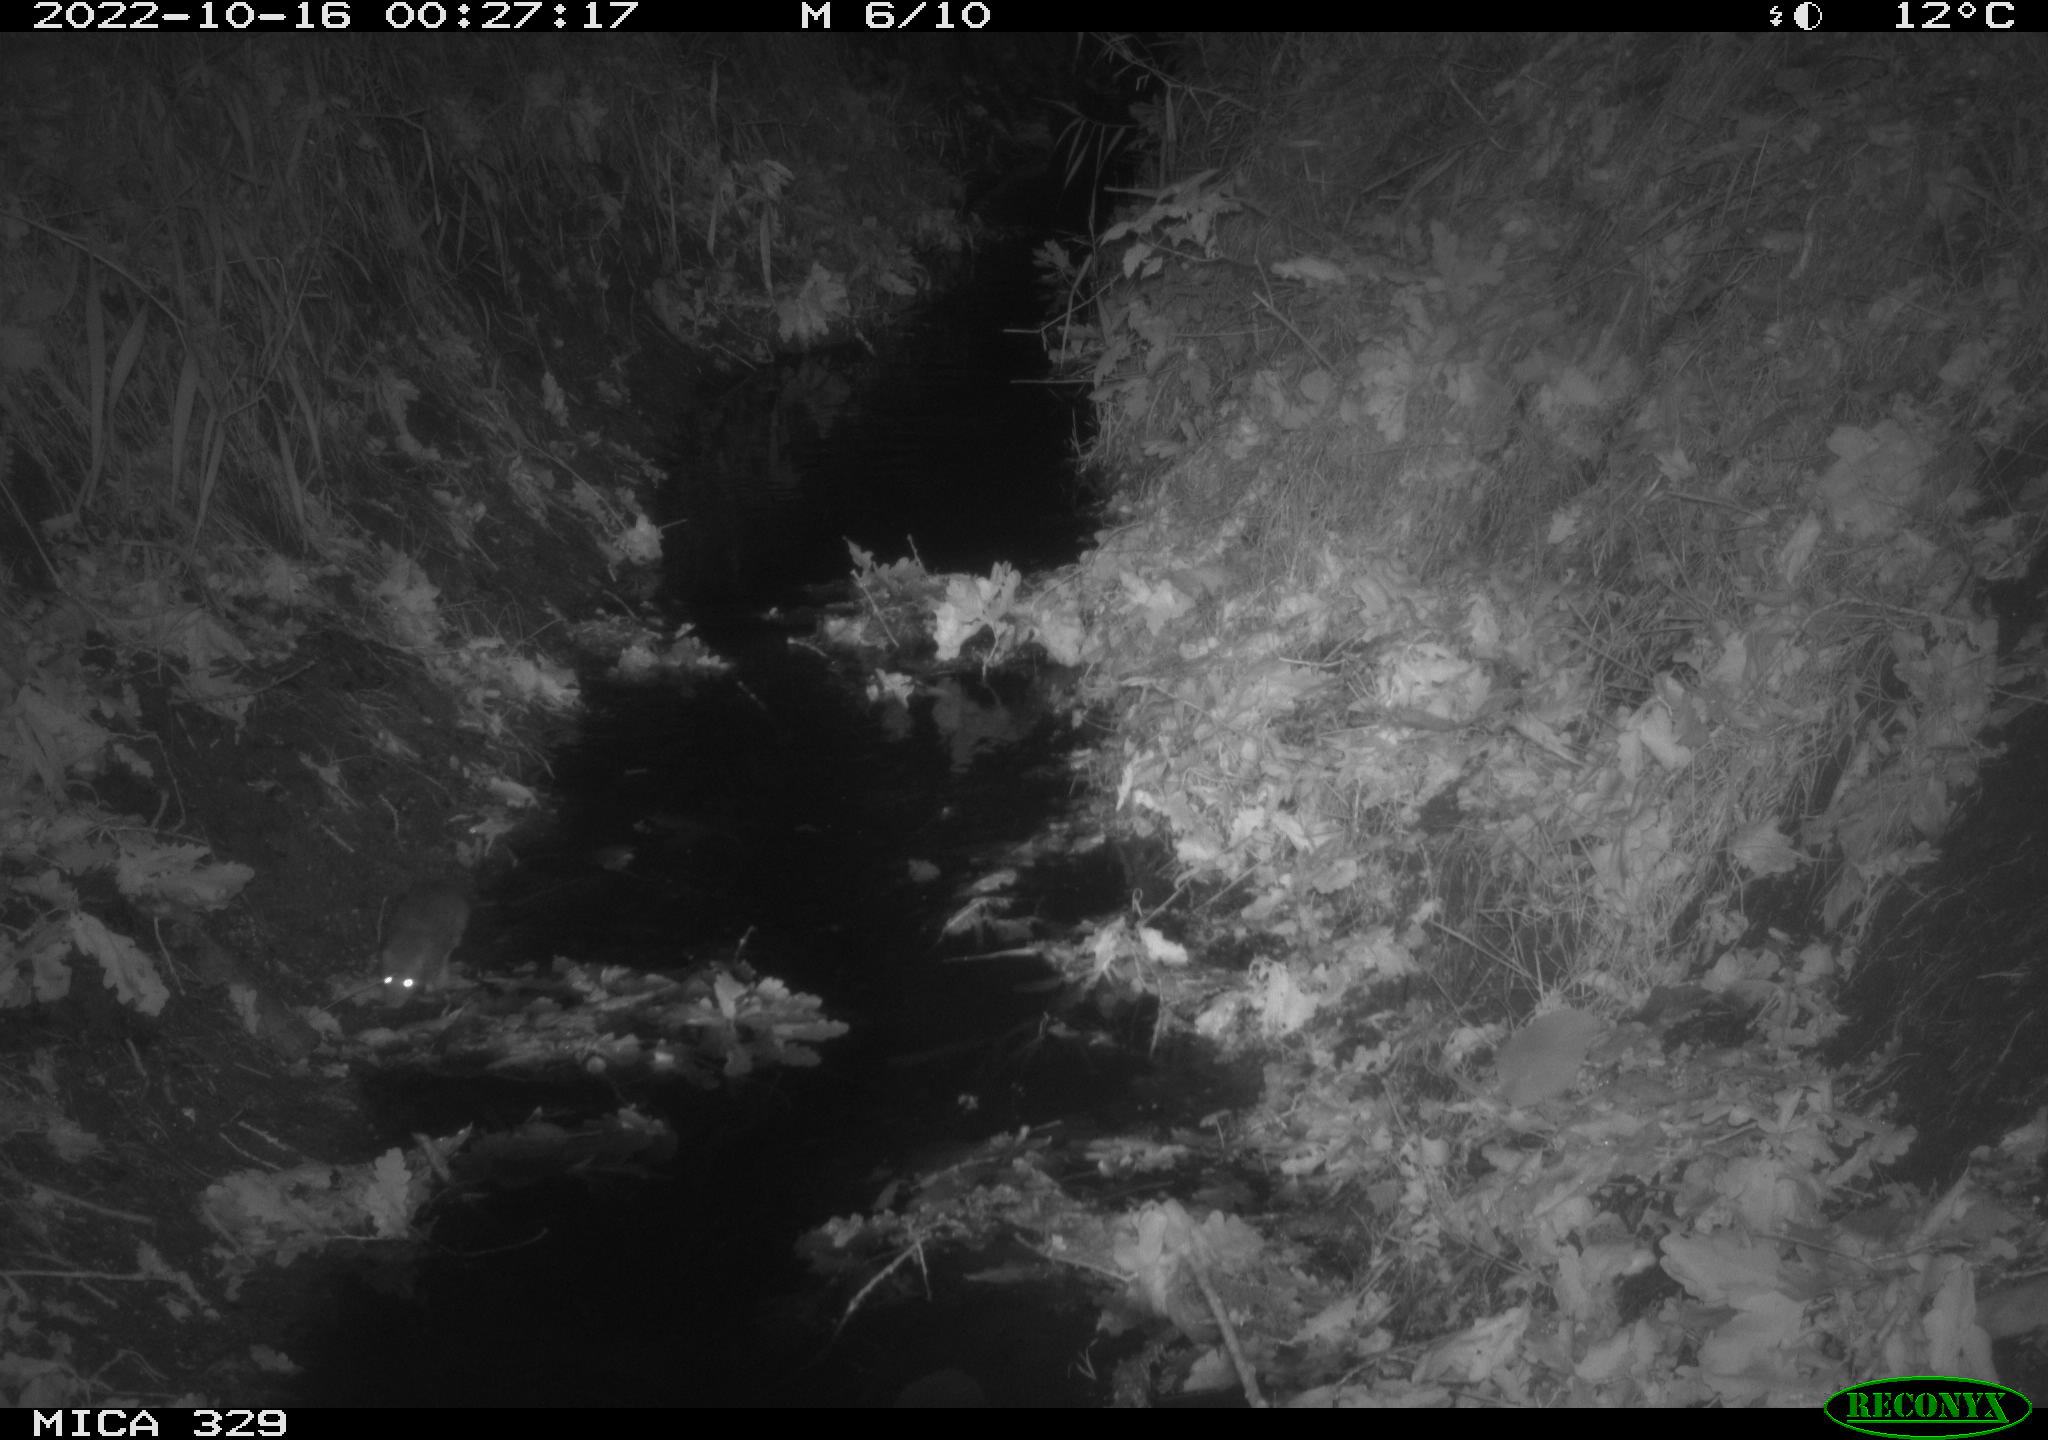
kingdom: Animalia
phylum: Chordata
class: Mammalia
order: Rodentia
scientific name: Rodentia
